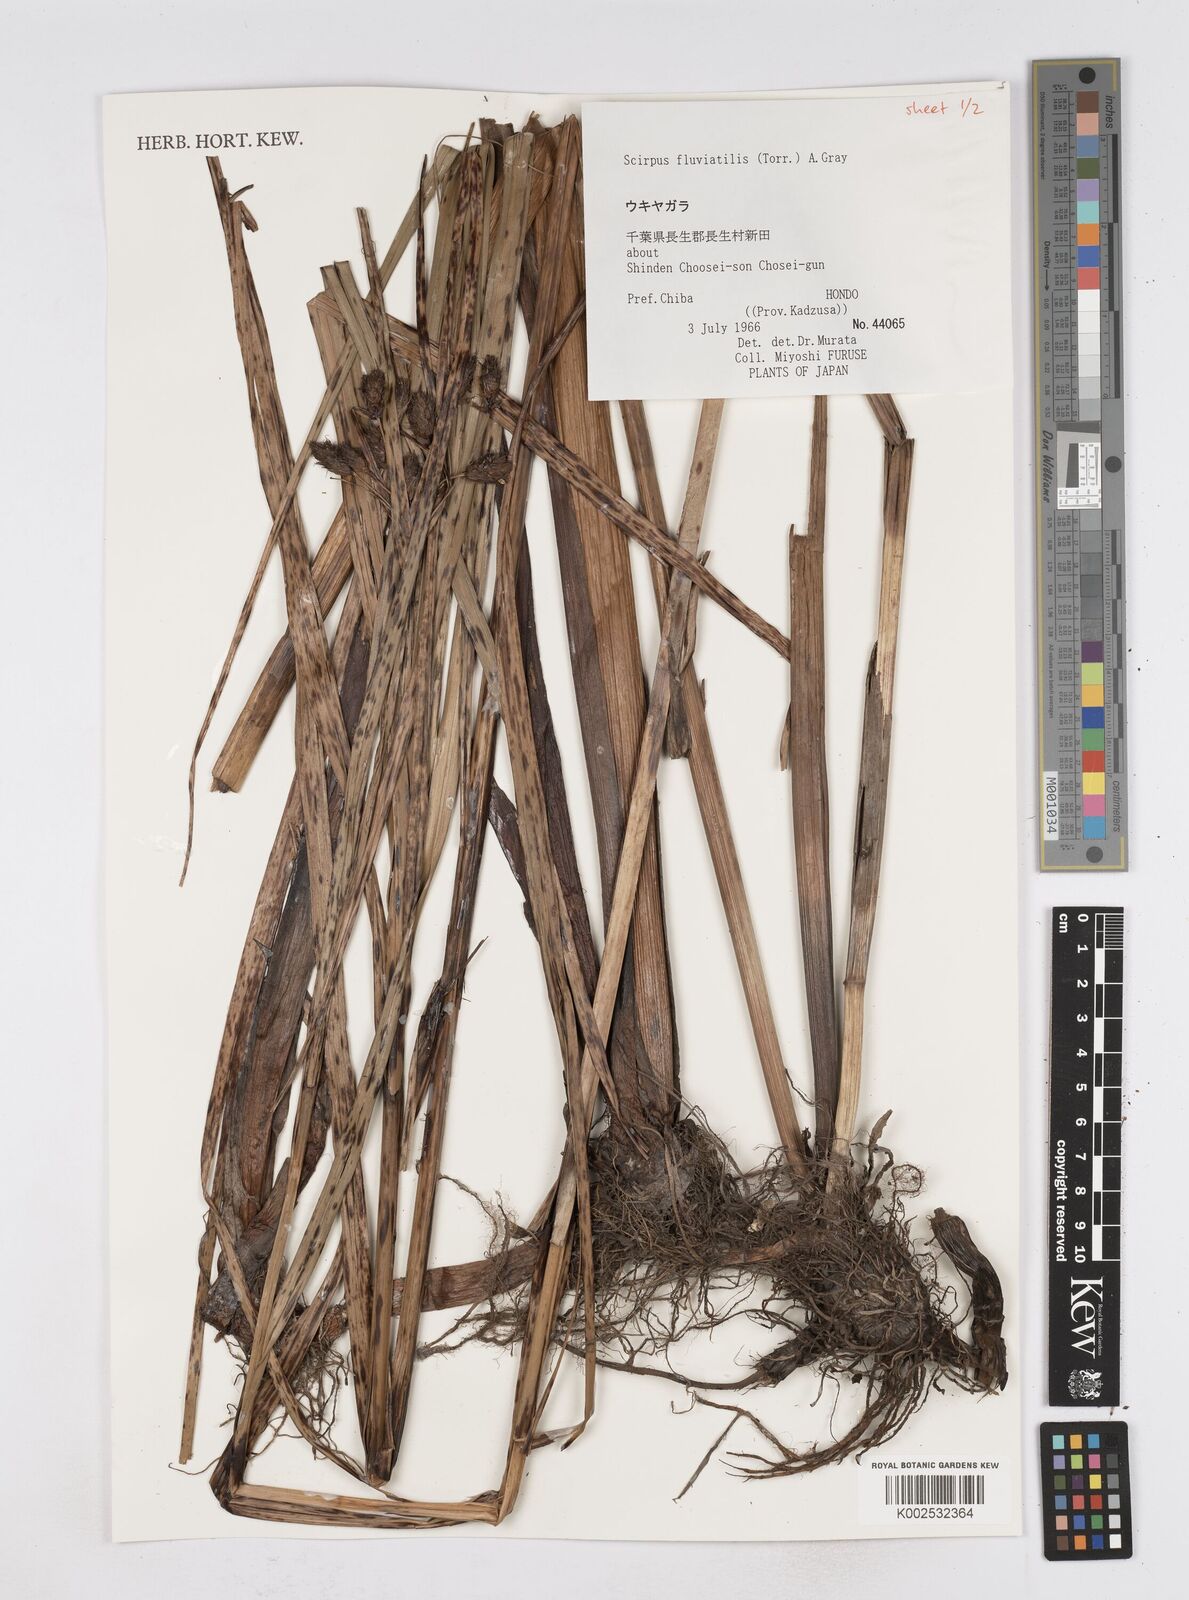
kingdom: Plantae
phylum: Tracheophyta
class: Liliopsida
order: Poales
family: Cyperaceae
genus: Bolboschoenus
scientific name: Bolboschoenus maritimus
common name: Sea club-rush
